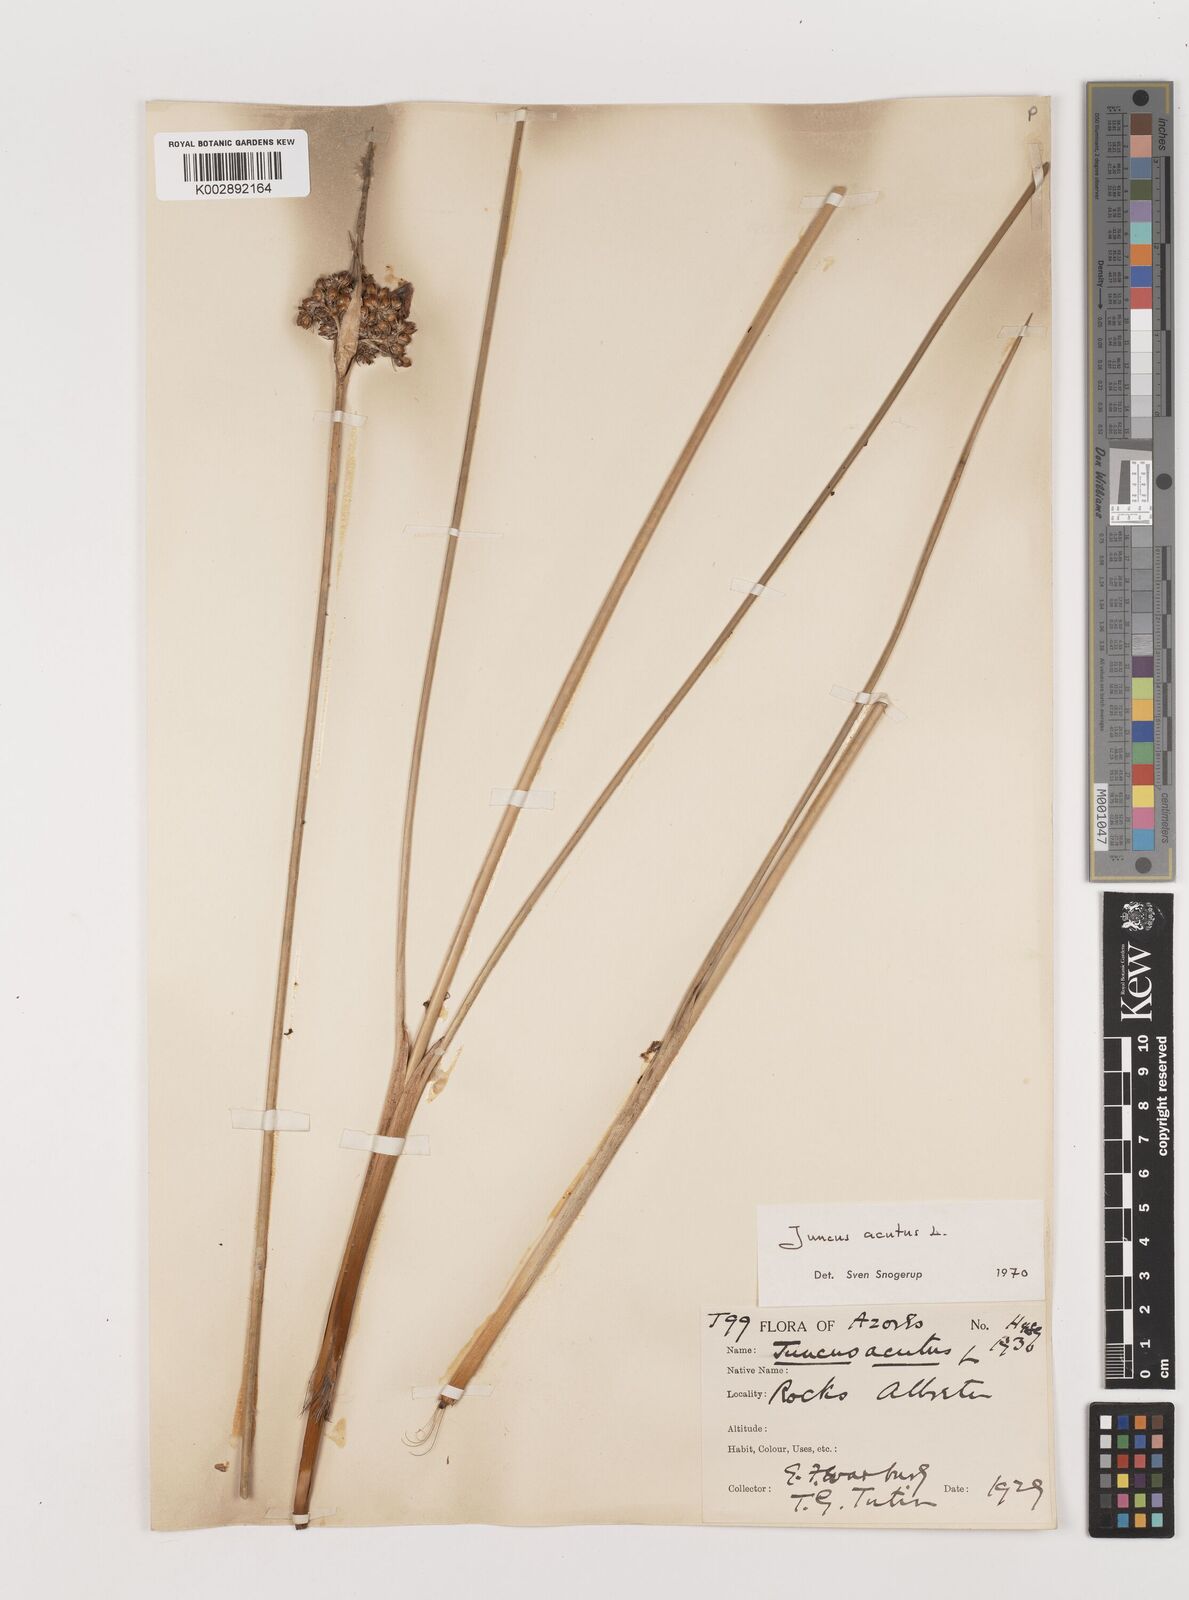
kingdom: Plantae
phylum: Tracheophyta
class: Liliopsida
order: Poales
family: Juncaceae
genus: Juncus
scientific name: Juncus acutus
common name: Sharp rush
